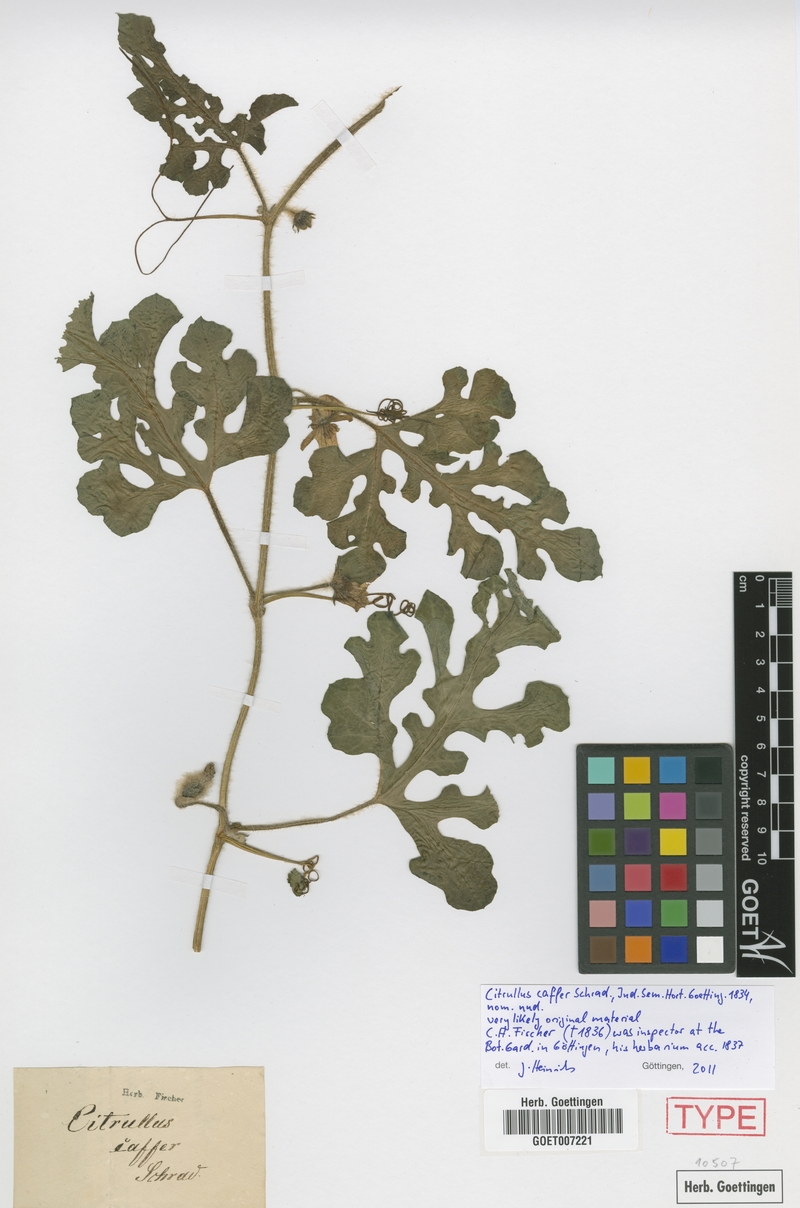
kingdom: Plantae
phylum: Tracheophyta
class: Magnoliopsida
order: Cucurbitales
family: Cucurbitaceae
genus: Citrullus
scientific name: Citrullus amarus
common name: Fodder-melon
